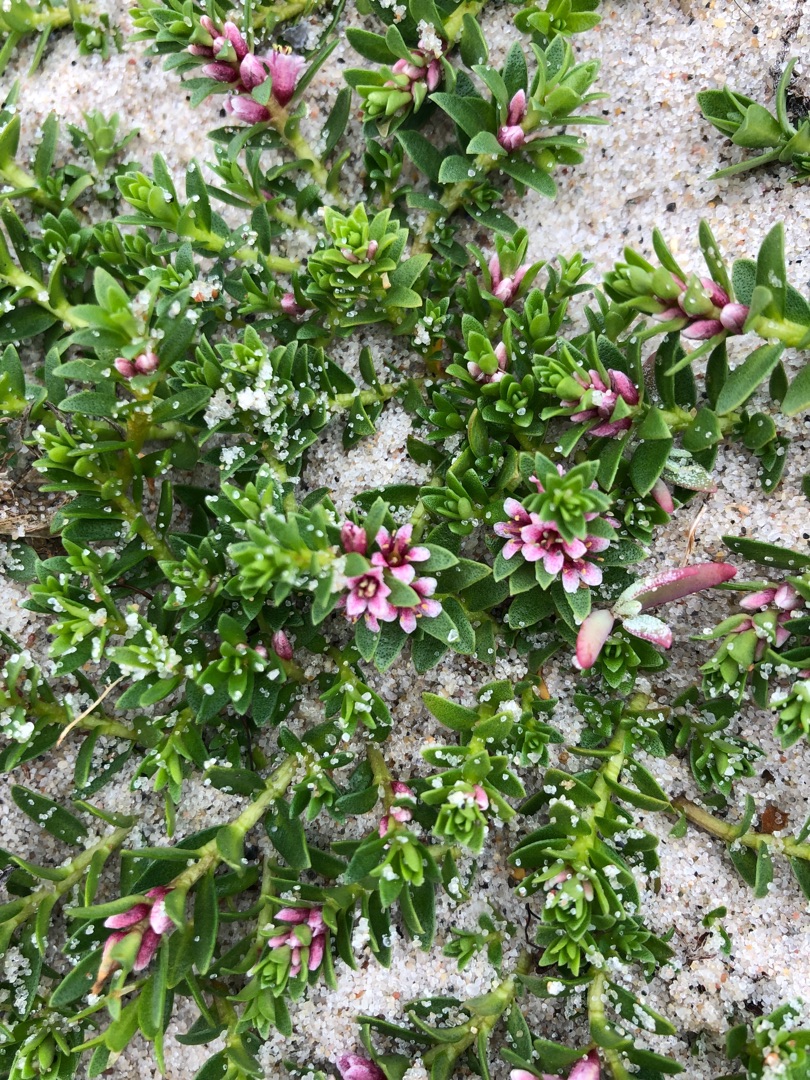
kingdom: Plantae
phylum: Tracheophyta
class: Magnoliopsida
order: Ericales
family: Primulaceae
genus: Lysimachia
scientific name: Lysimachia maritima
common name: Sandkryb
